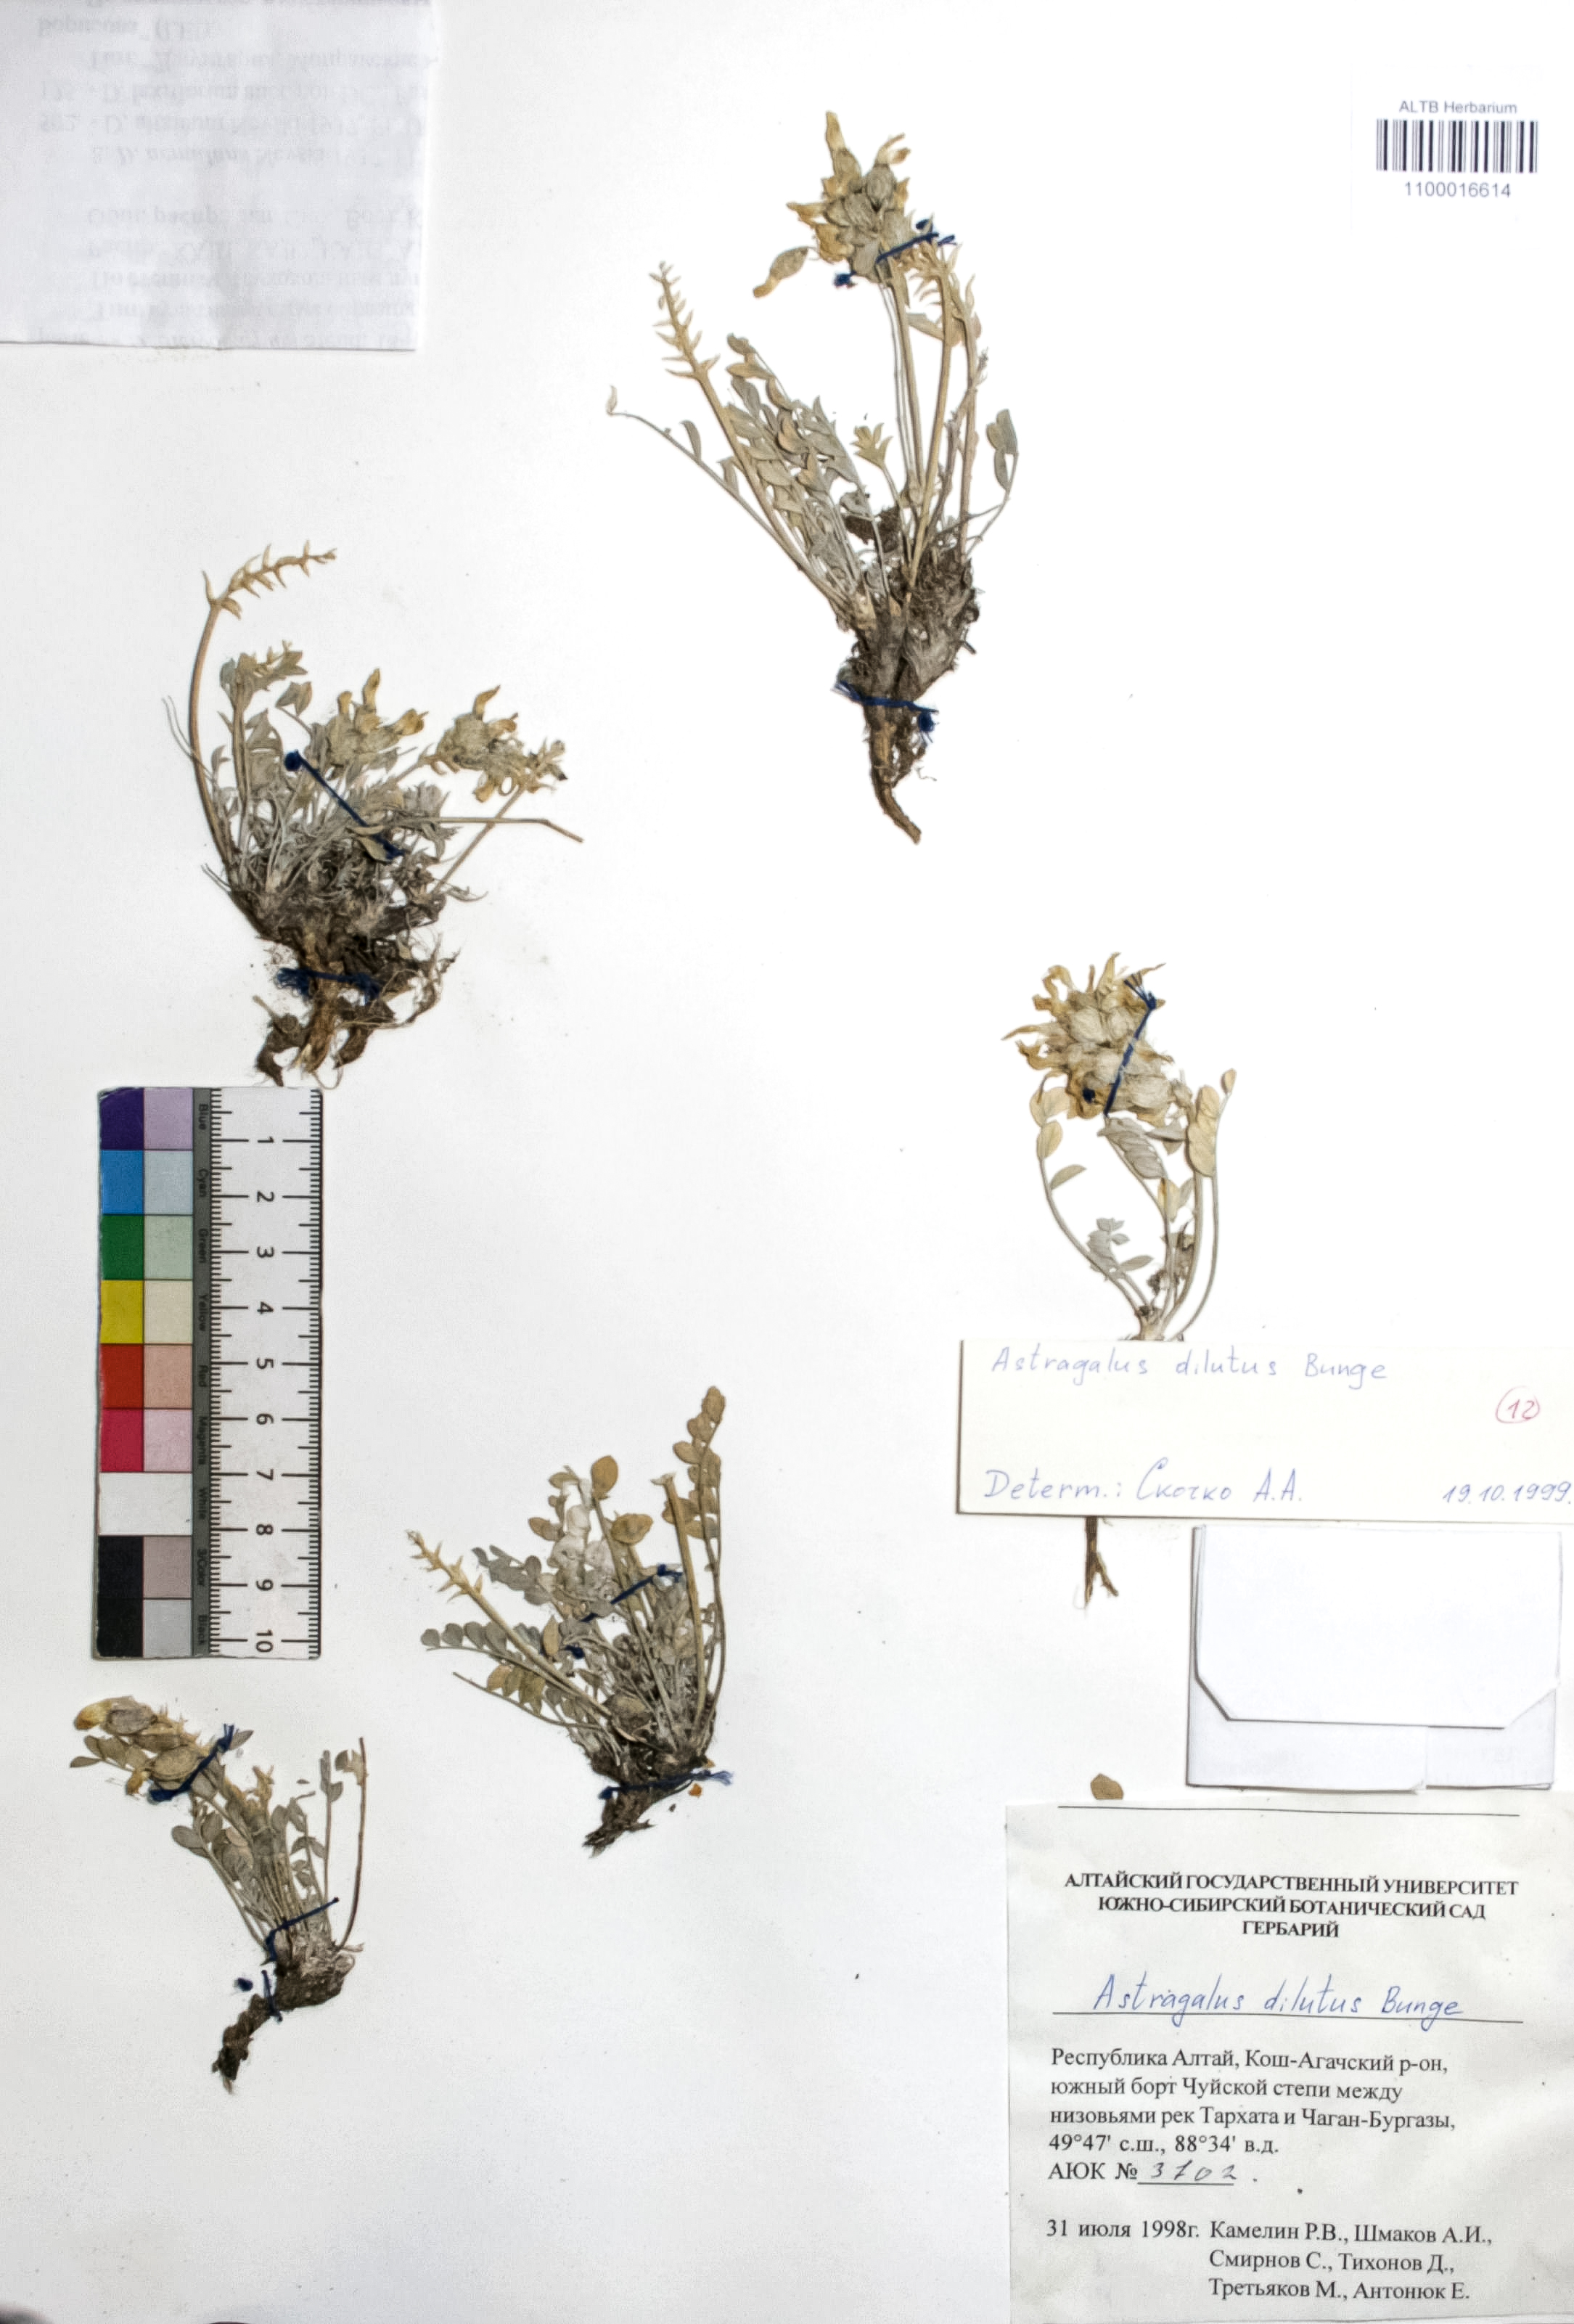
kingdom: Plantae
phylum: Tracheophyta
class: Magnoliopsida
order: Fabales
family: Fabaceae
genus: Astragalus
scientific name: Astragalus dilutus
